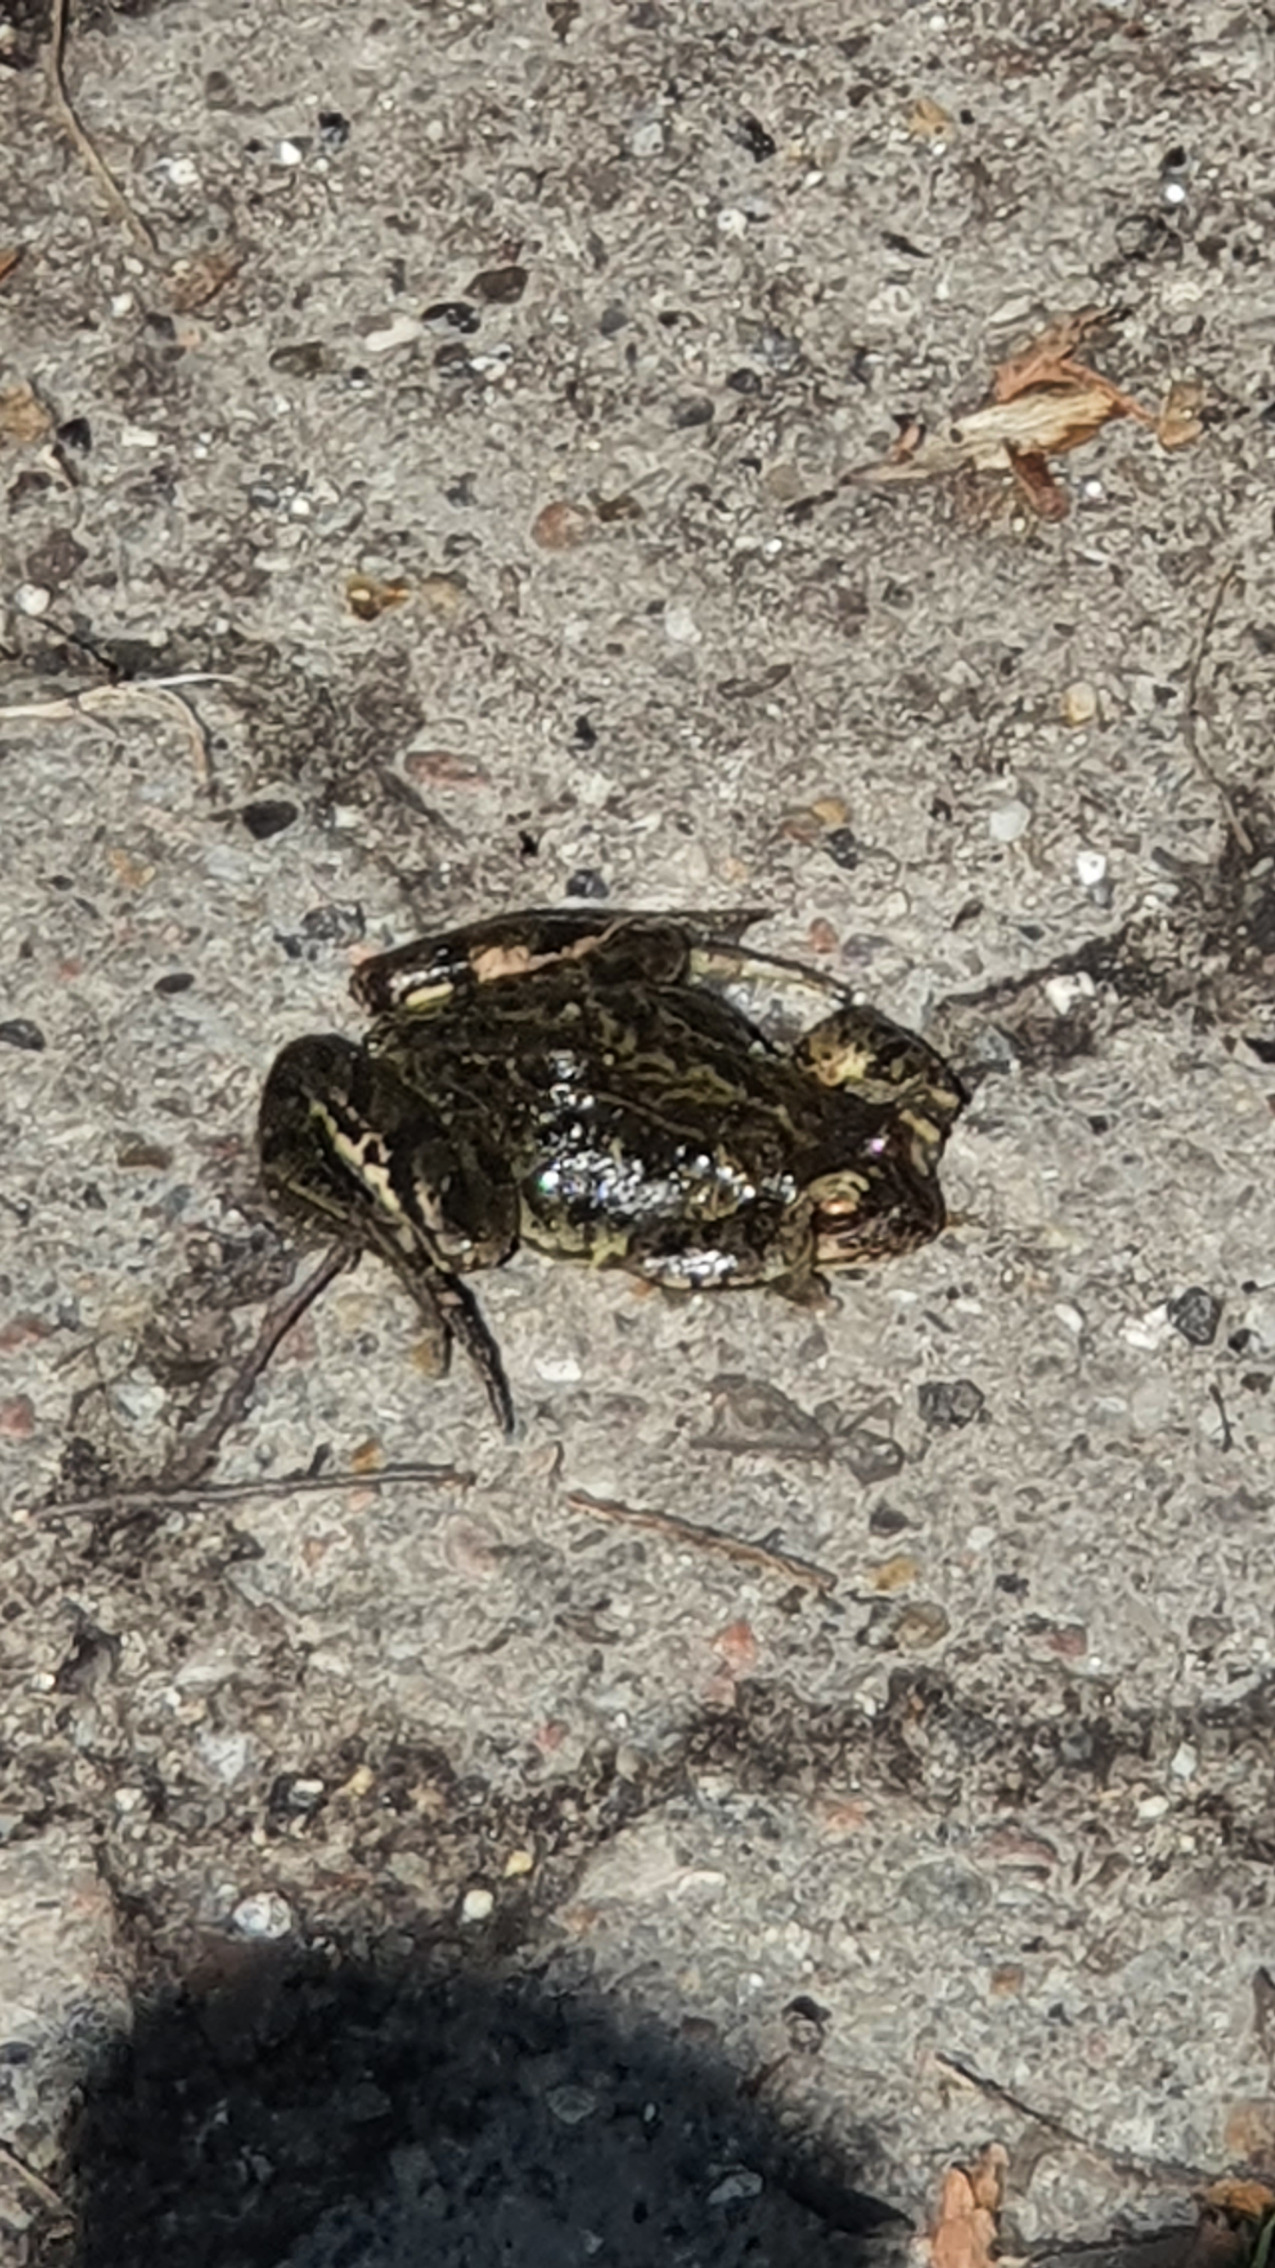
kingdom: Animalia
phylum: Chordata
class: Amphibia
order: Anura
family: Ranidae
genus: Rana
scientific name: Rana temporaria
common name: Butsnudet frø
